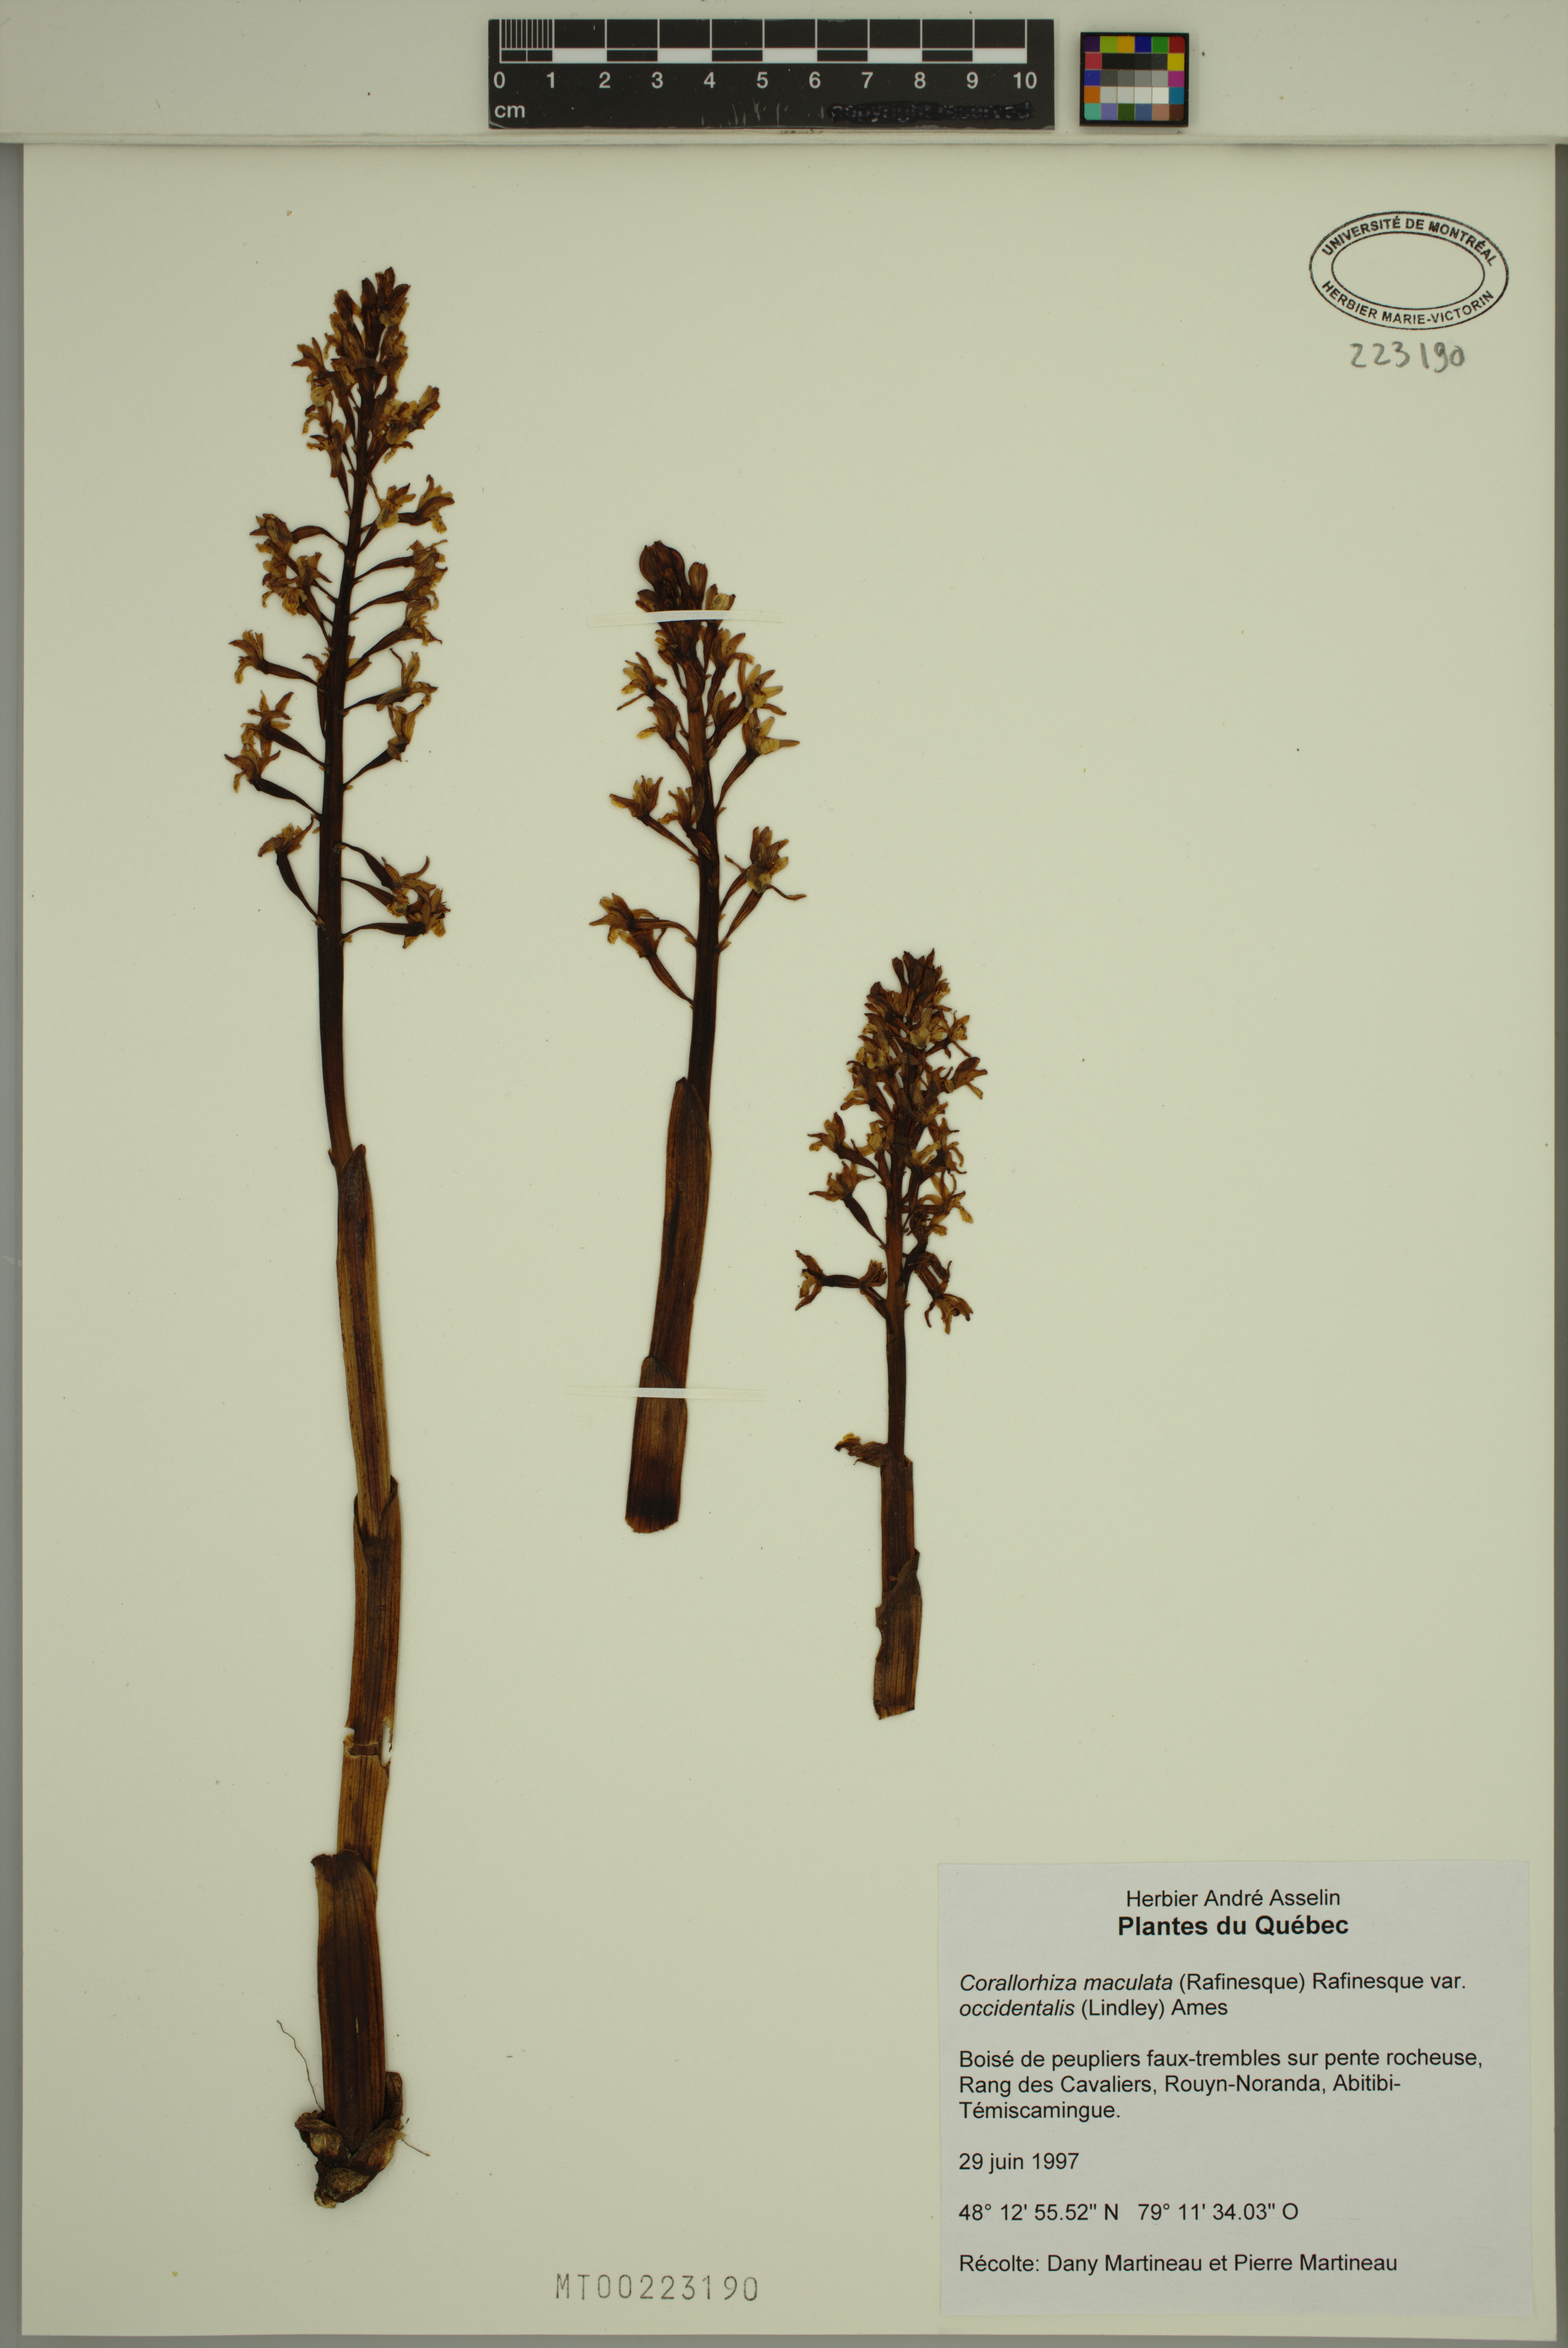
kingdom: Plantae
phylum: Tracheophyta
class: Liliopsida
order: Asparagales
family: Orchidaceae
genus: Corallorhiza
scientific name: Corallorhiza maculata
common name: Spotted coralroot
